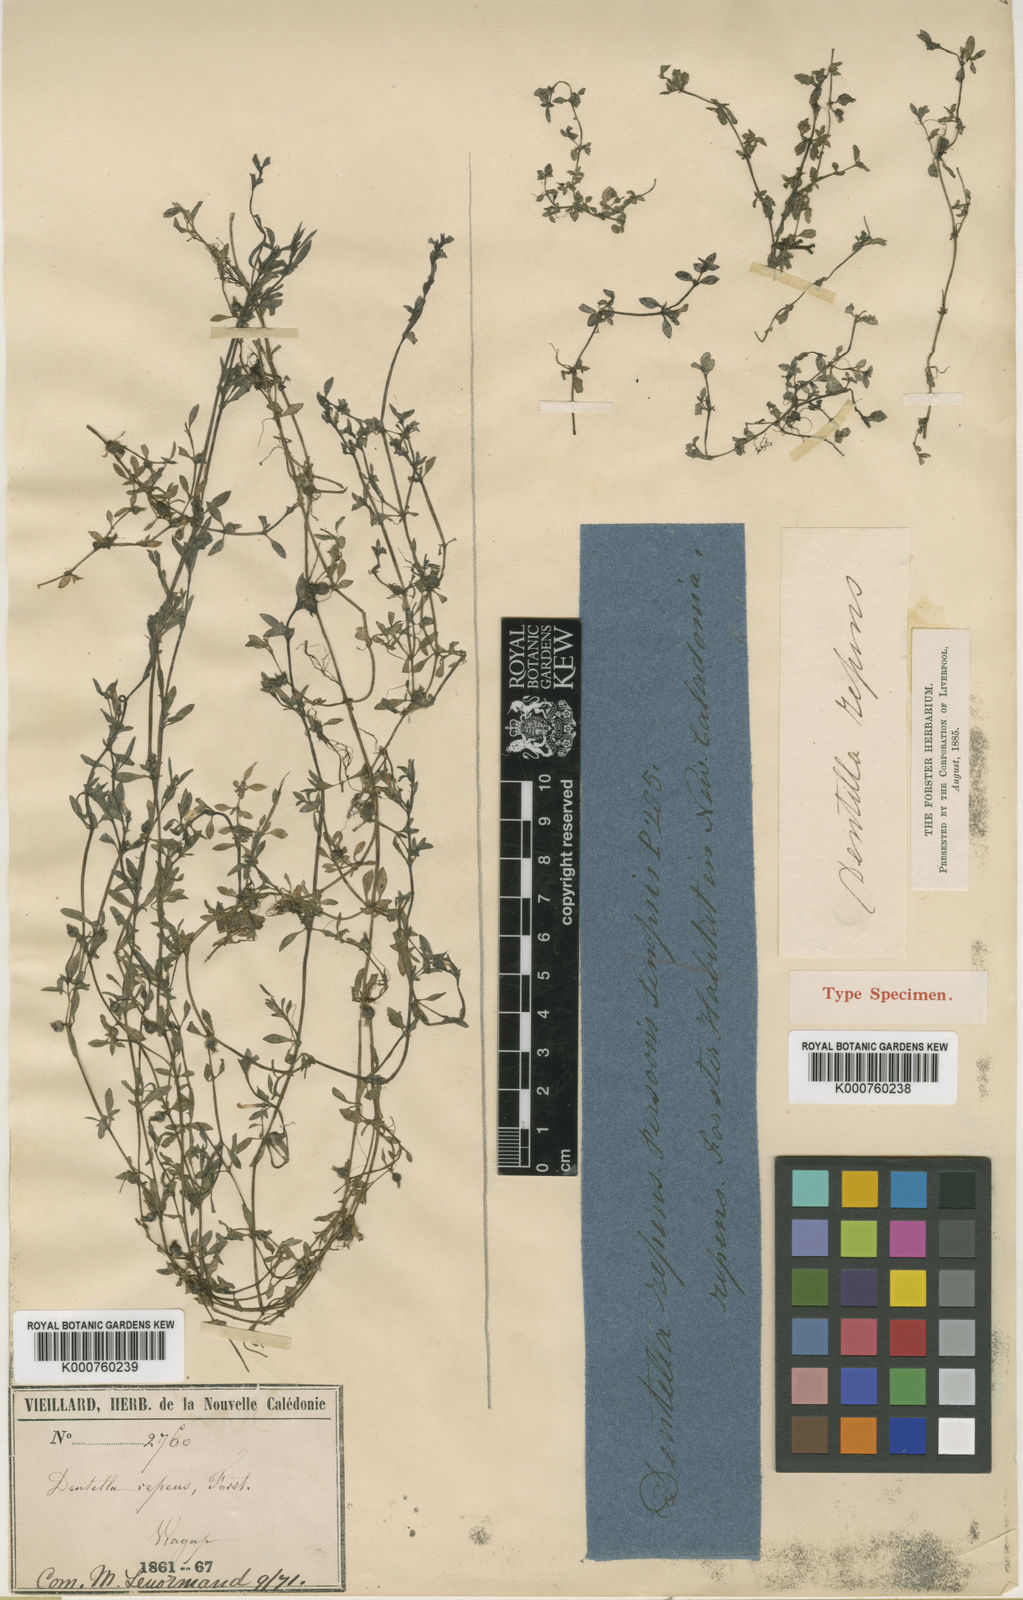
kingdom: Plantae
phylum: Tracheophyta
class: Magnoliopsida
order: Gentianales
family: Rubiaceae
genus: Dentella
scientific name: Dentella repens
